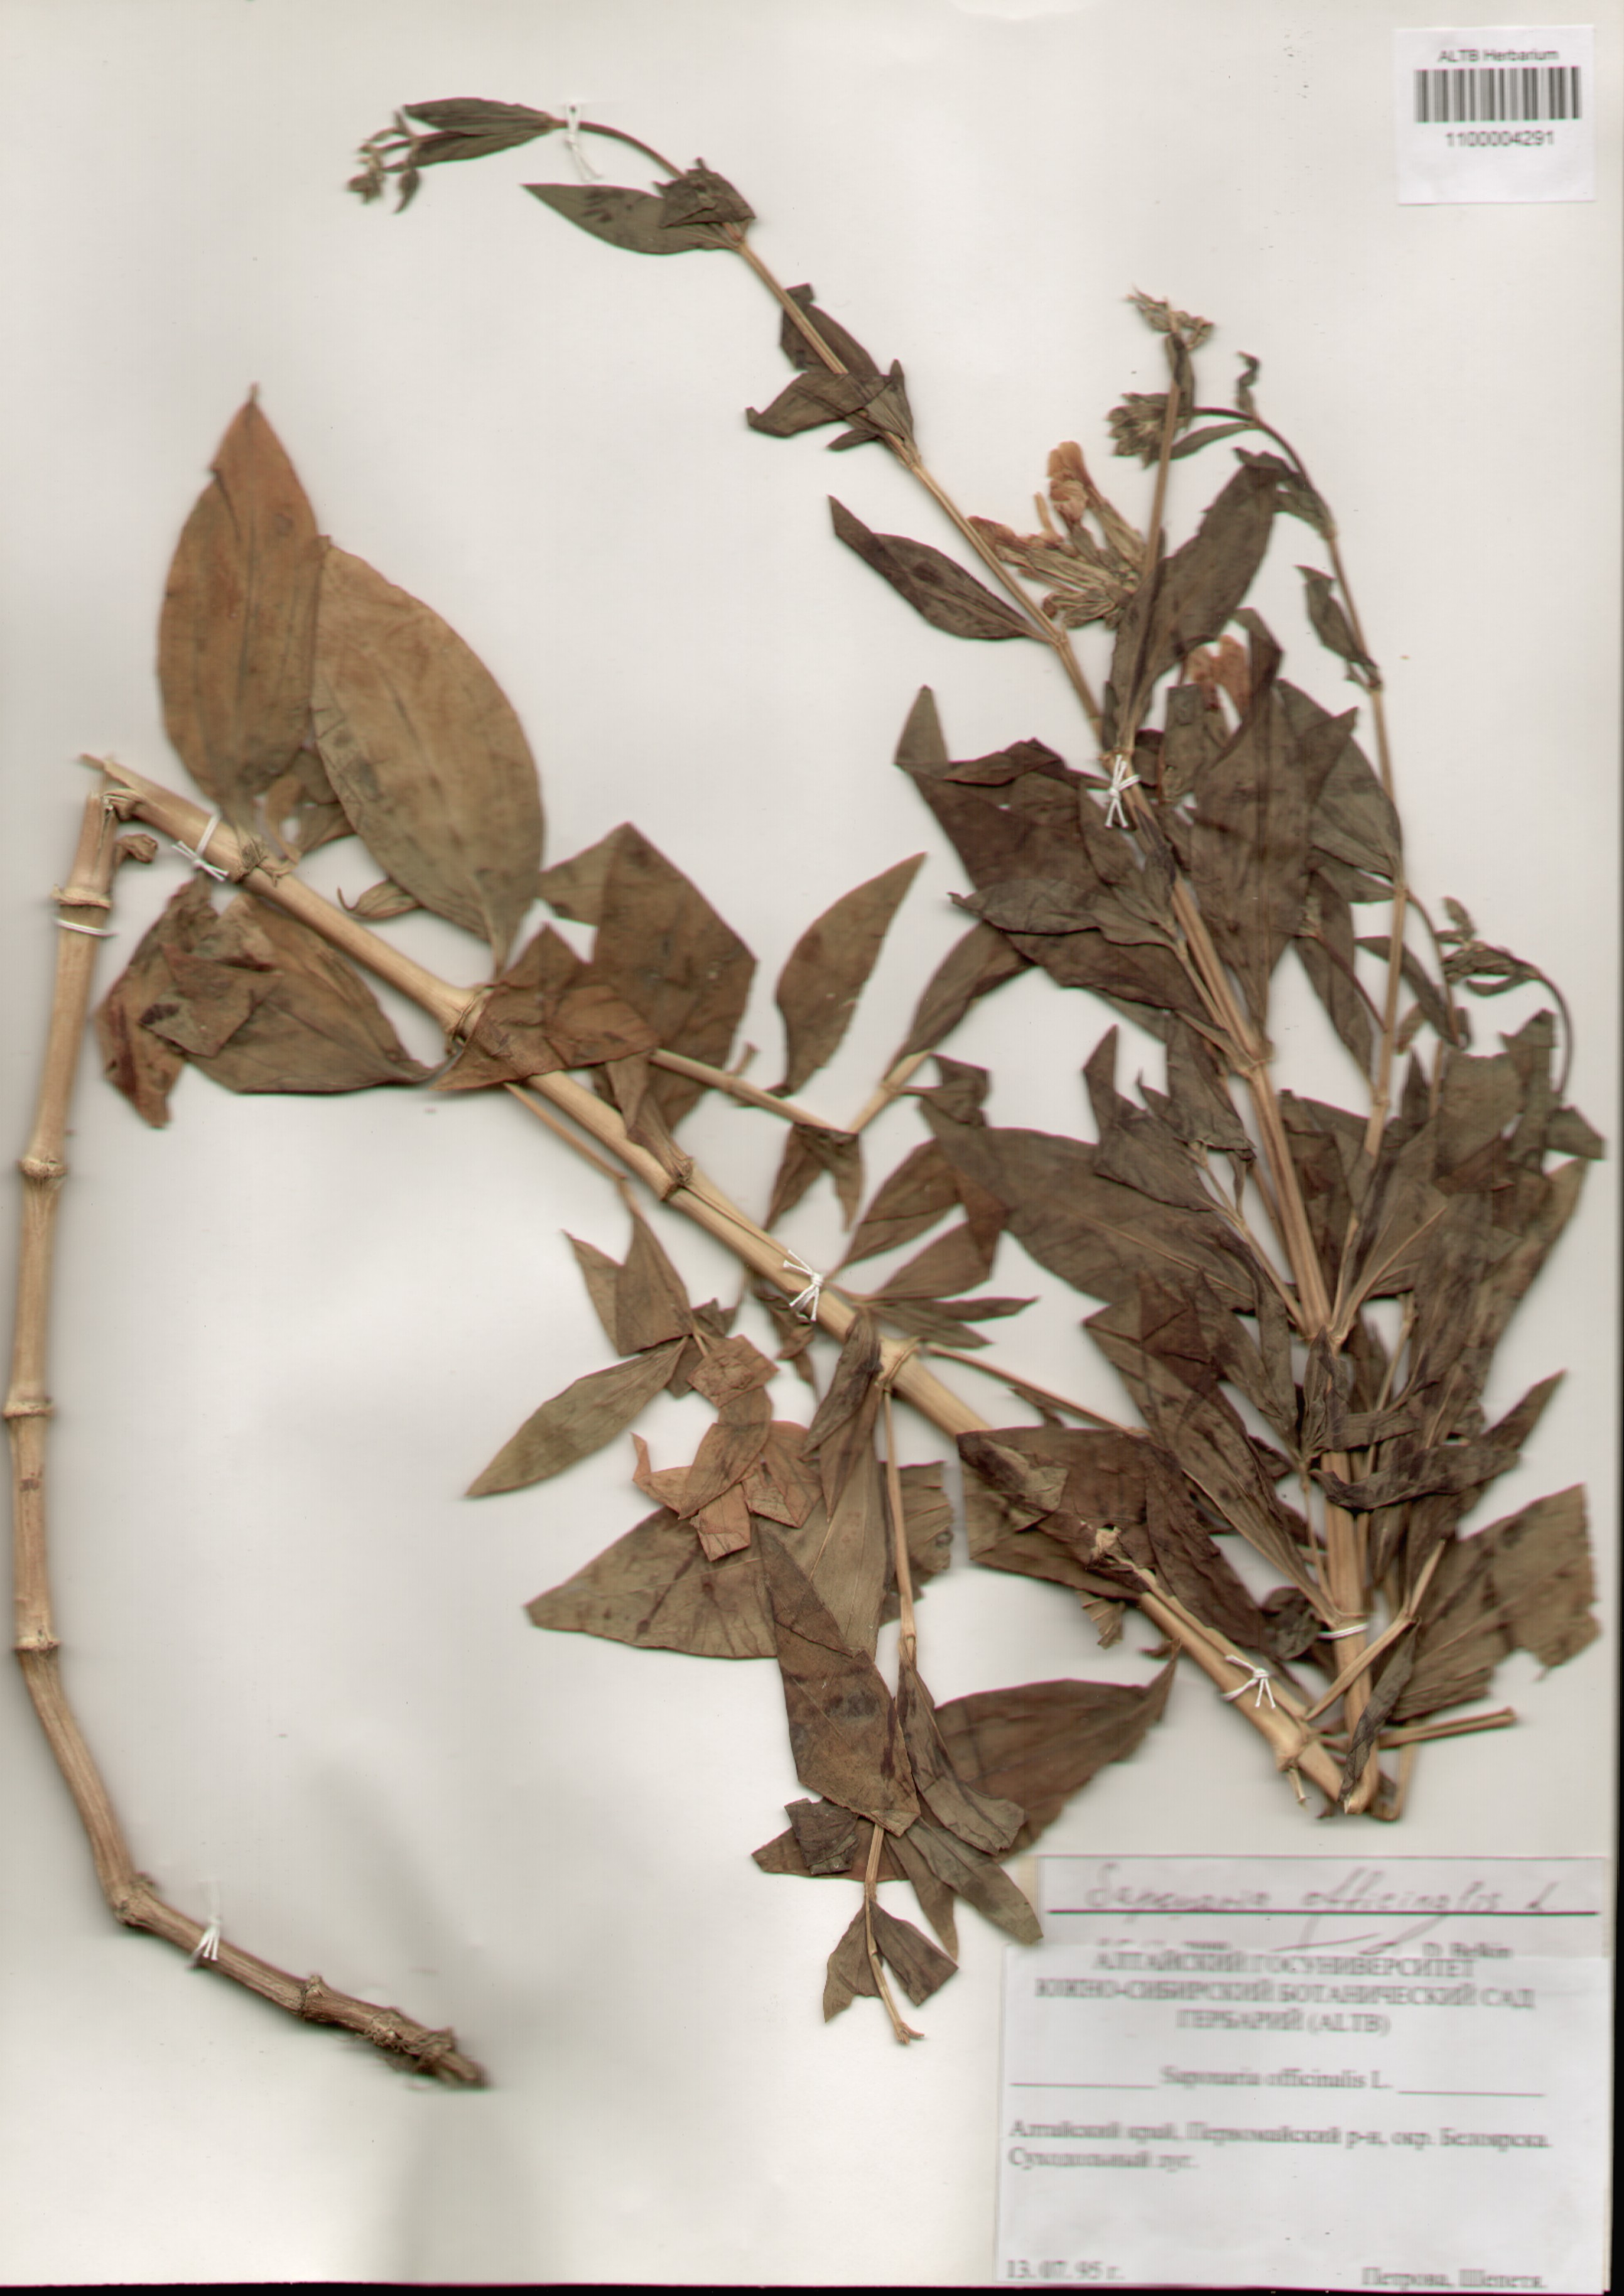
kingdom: Plantae
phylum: Tracheophyta
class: Magnoliopsida
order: Caryophyllales
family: Caryophyllaceae
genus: Saponaria
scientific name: Saponaria officinalis
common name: Soapwort
